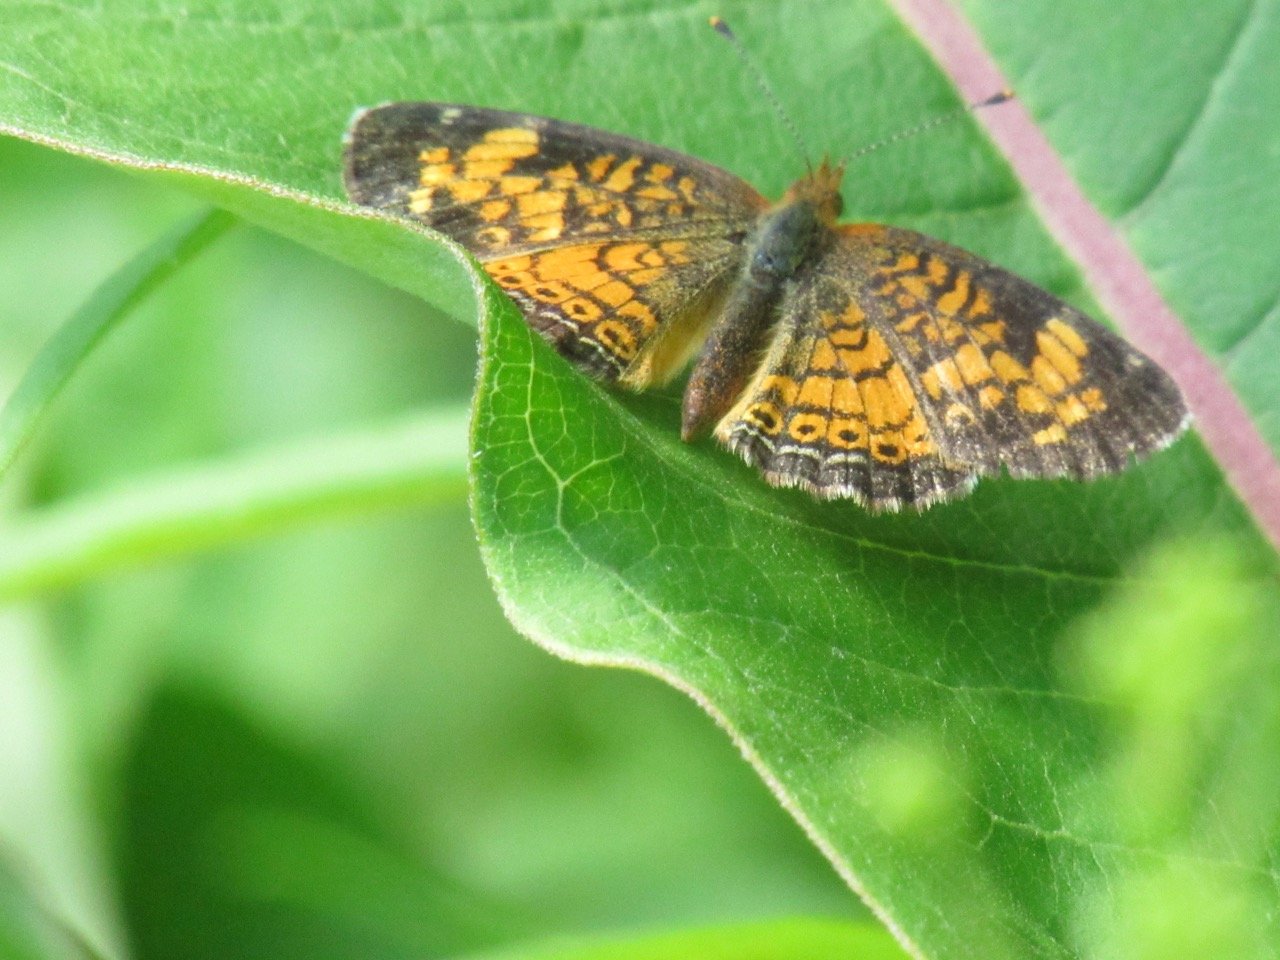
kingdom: Animalia
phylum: Arthropoda
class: Insecta
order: Lepidoptera
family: Nymphalidae
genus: Phyciodes
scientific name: Phyciodes tharos
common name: Pearl Crescent
